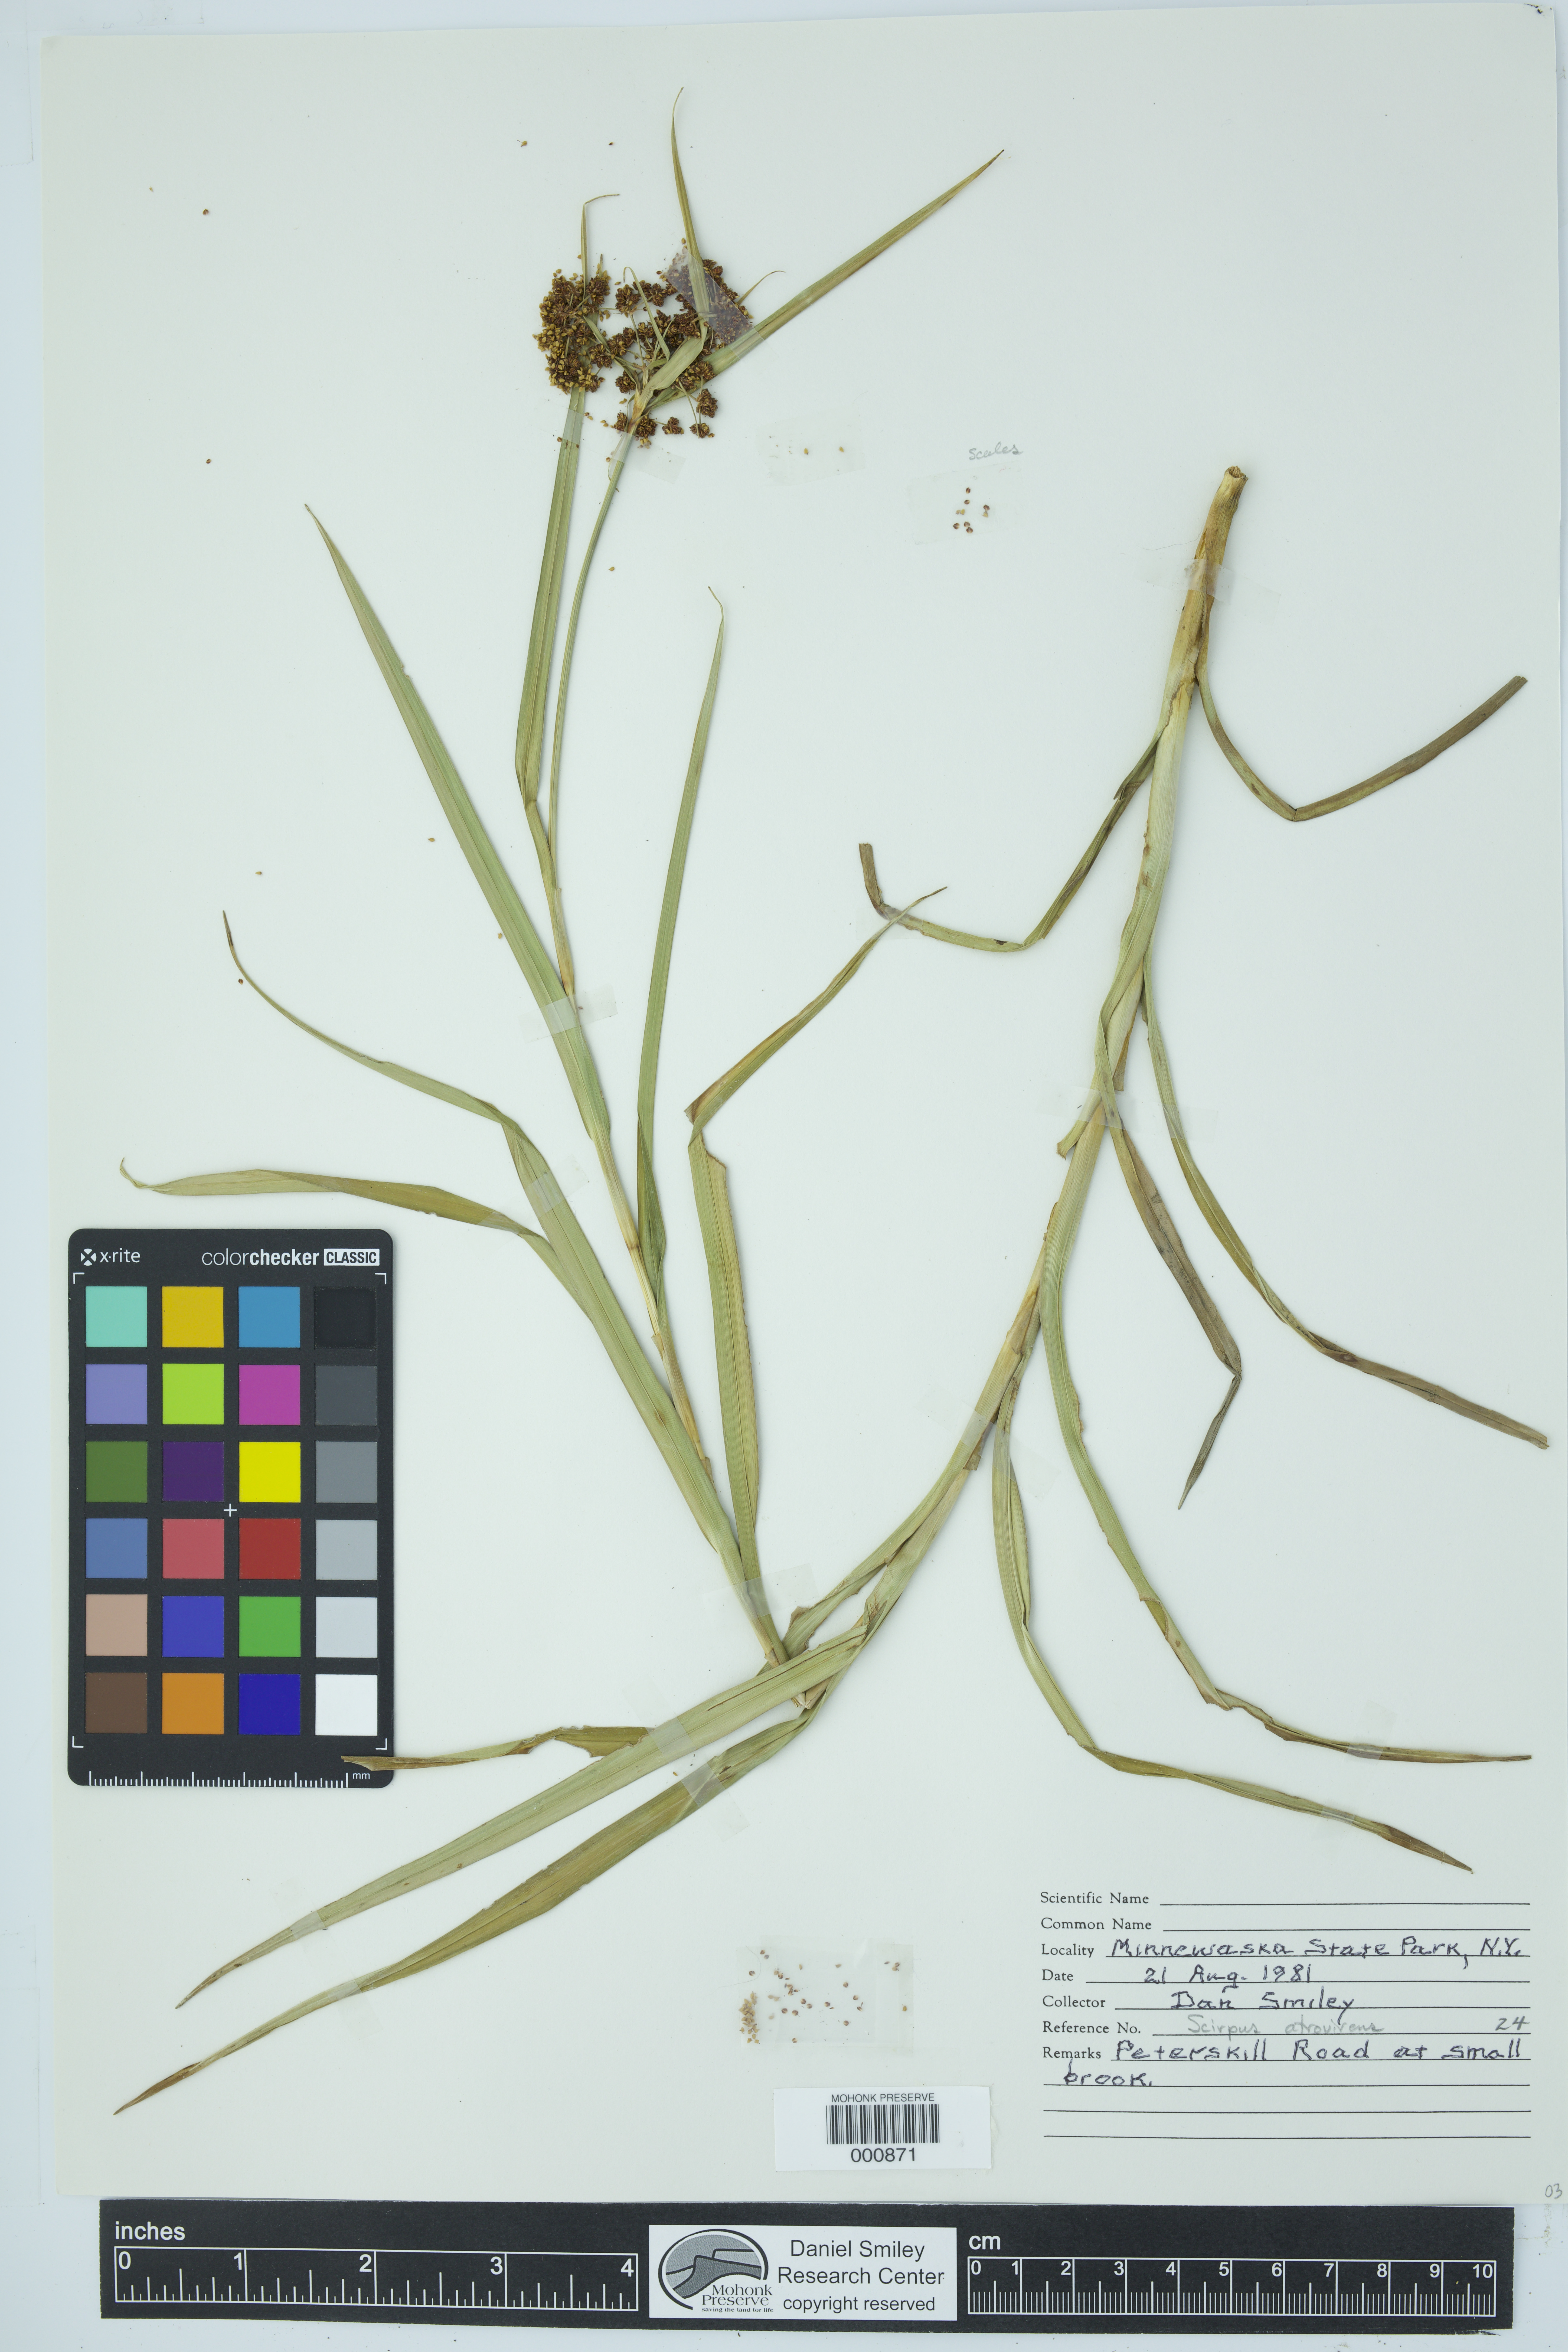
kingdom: Plantae
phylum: Tracheophyta
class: Liliopsida
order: Poales
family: Cyperaceae
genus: Scirpus
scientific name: Scirpus atrovirens
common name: Black bulrush
